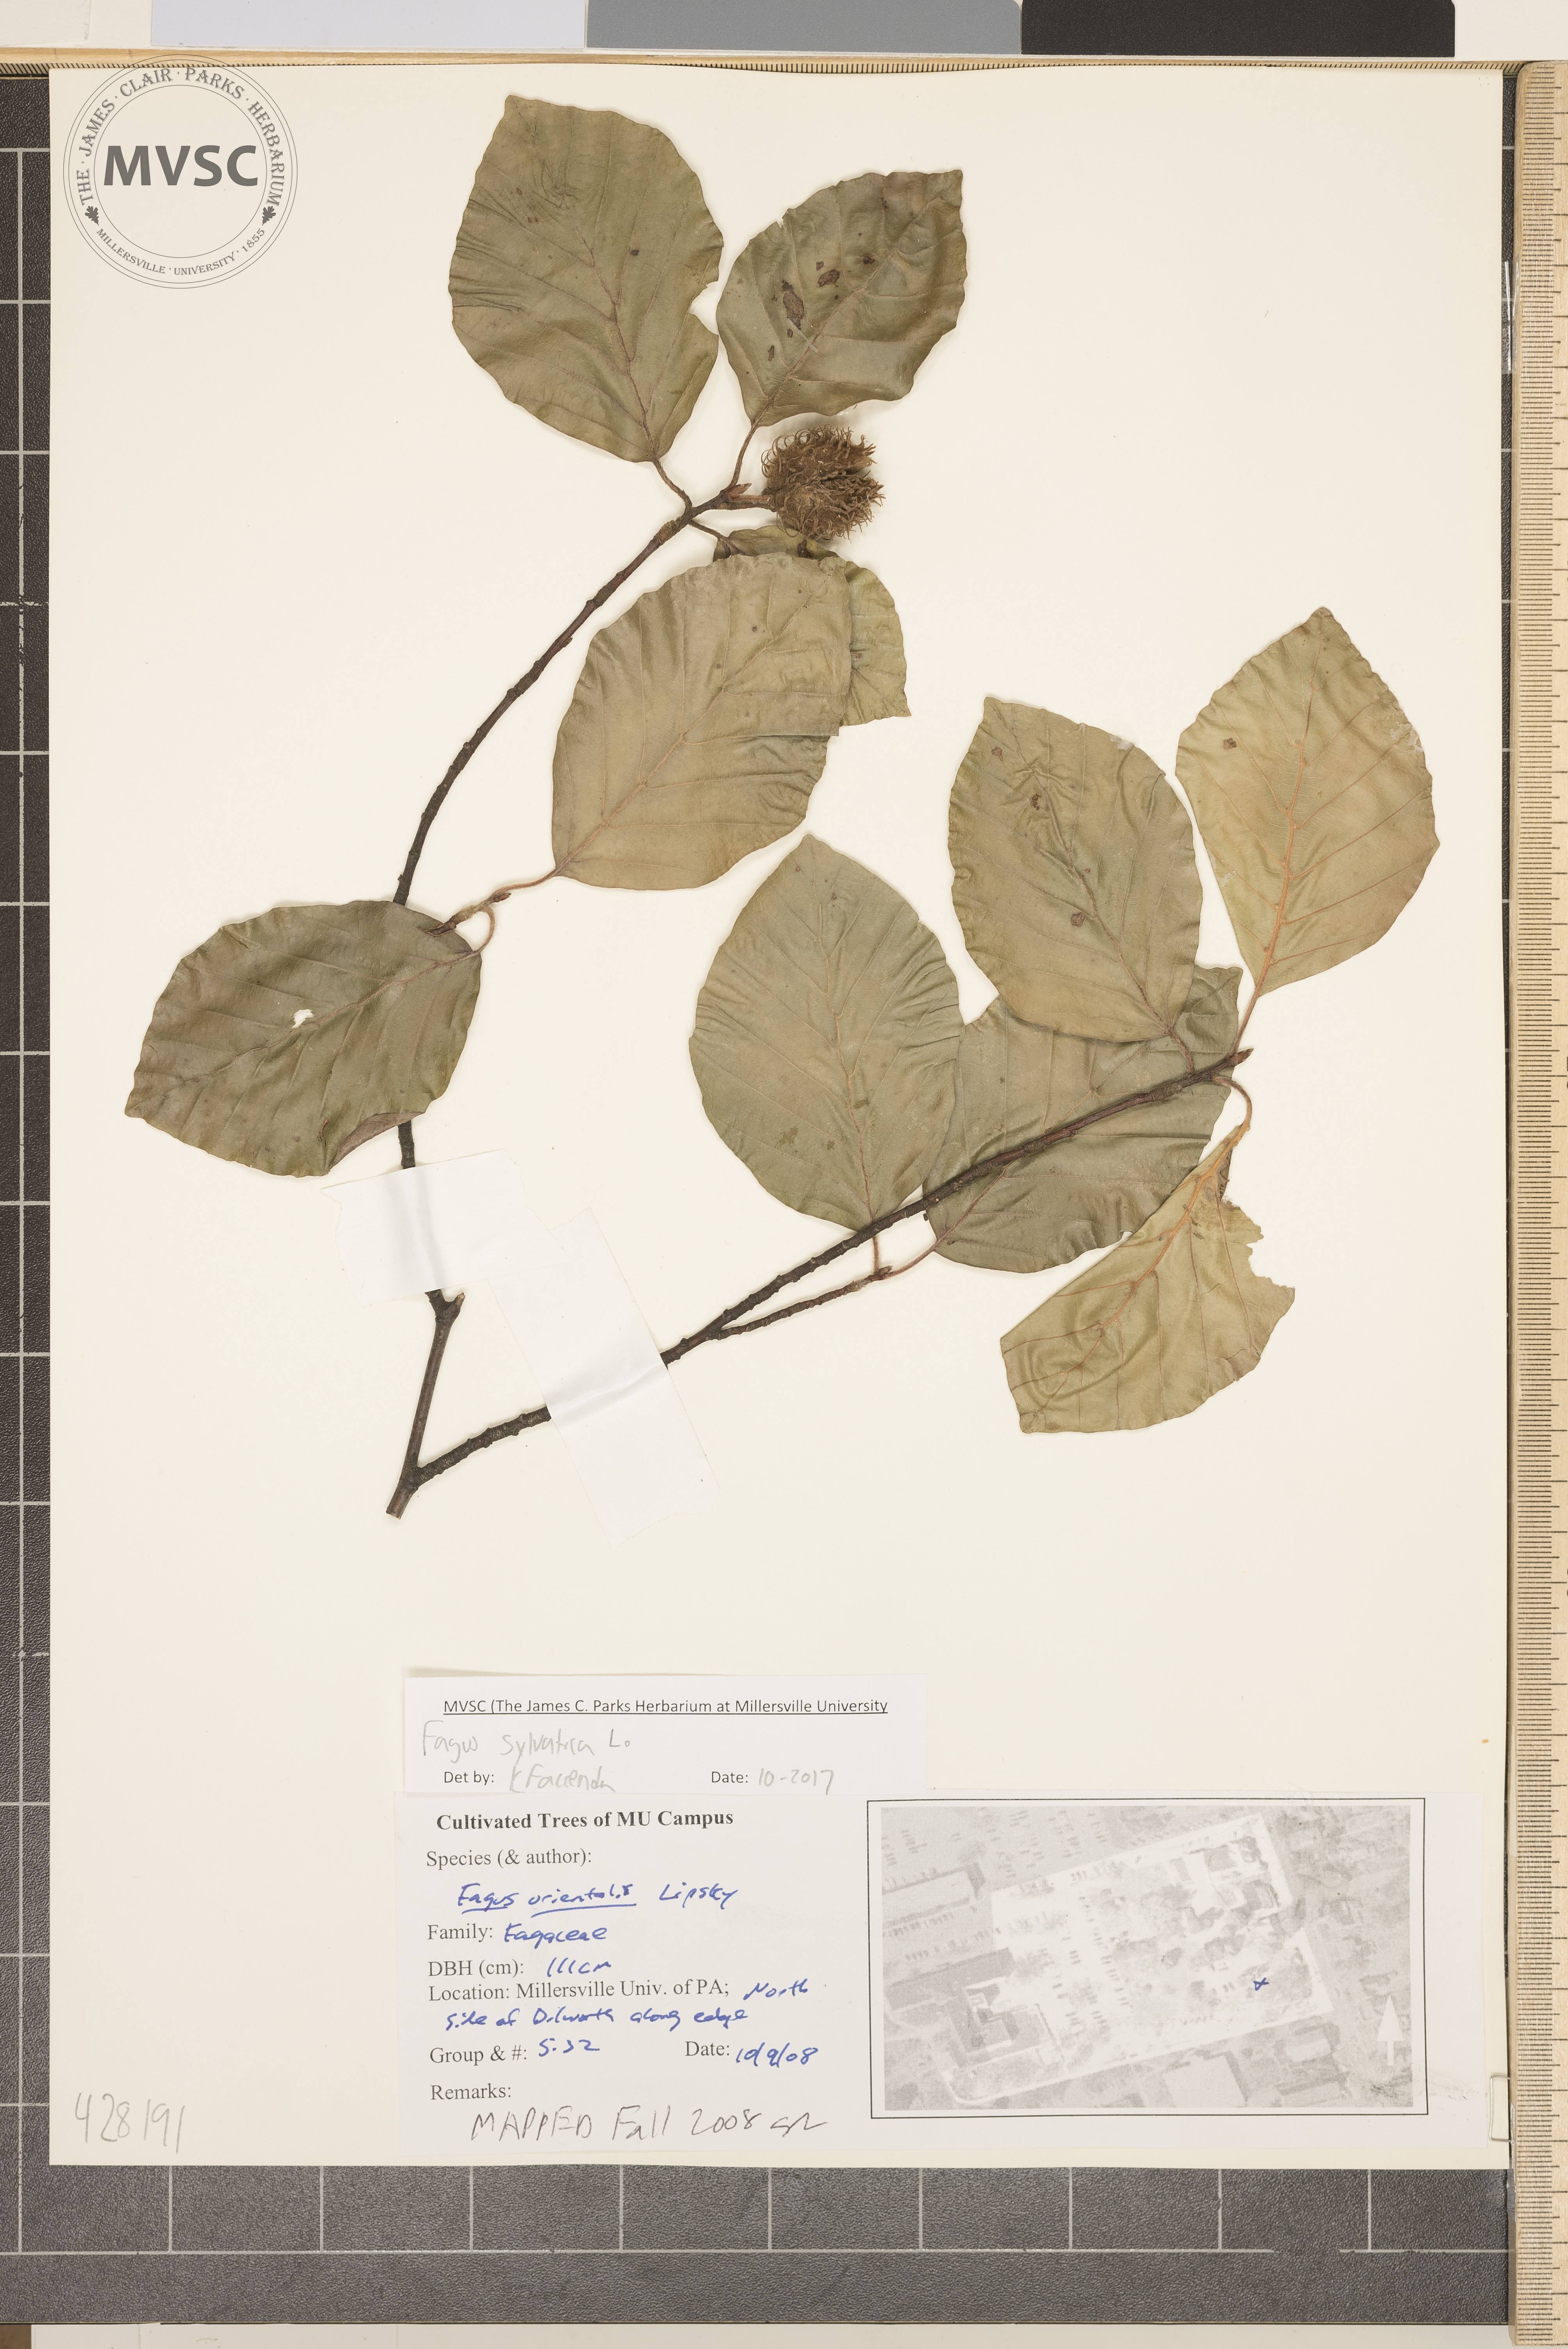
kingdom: Plantae
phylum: Tracheophyta
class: Magnoliopsida
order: Fagales
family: Fagaceae
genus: Fagus
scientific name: Fagus sylvatica
